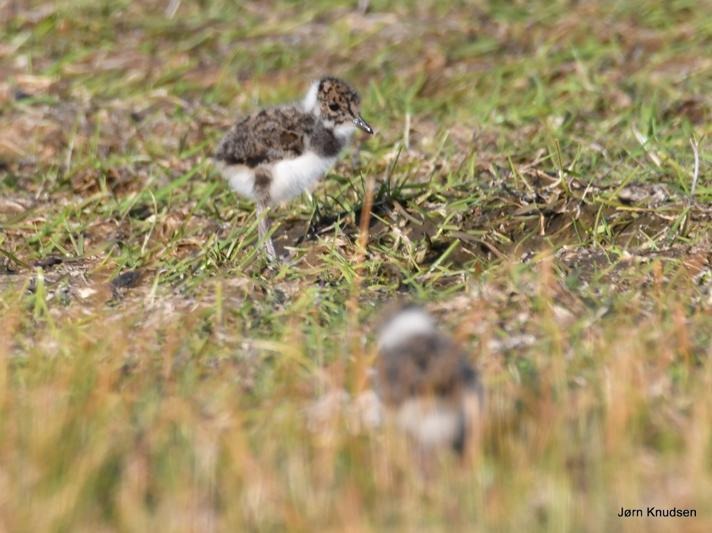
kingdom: Animalia
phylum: Chordata
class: Aves
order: Charadriiformes
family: Charadriidae
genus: Vanellus
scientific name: Vanellus vanellus
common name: Vibe
